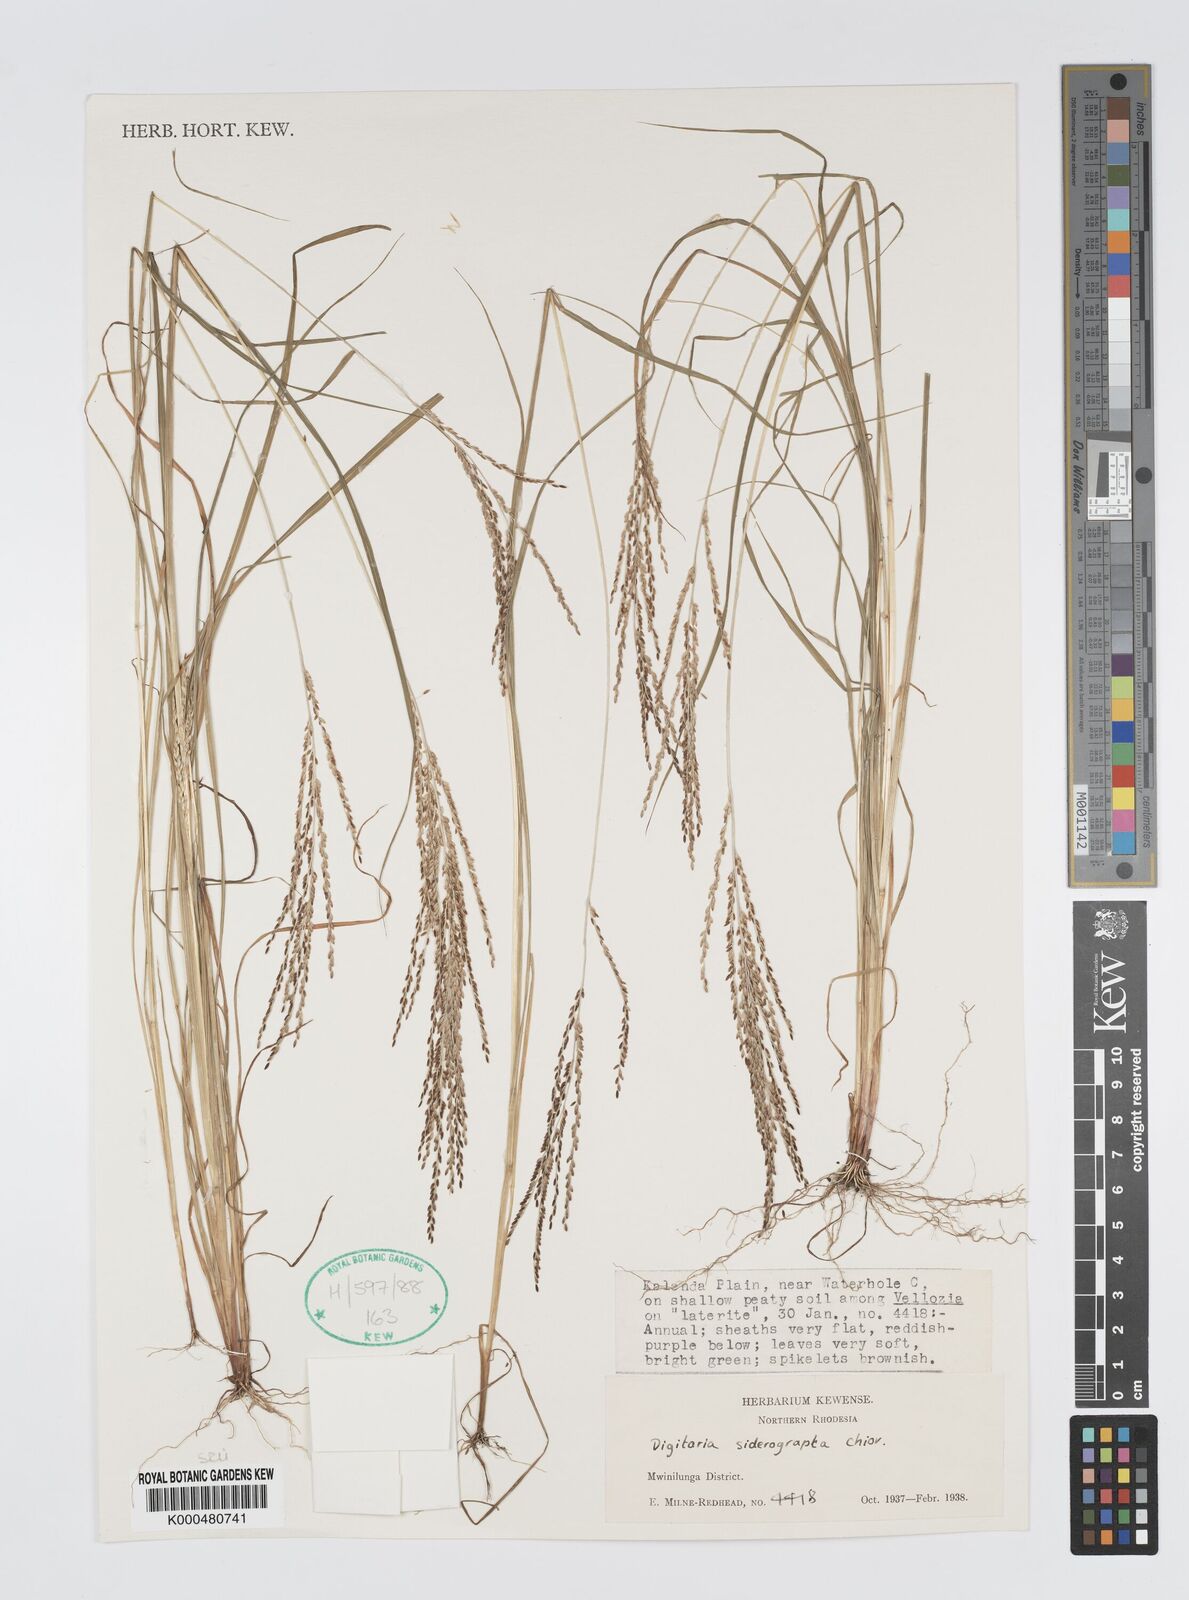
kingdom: Plantae
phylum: Tracheophyta
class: Liliopsida
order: Poales
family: Poaceae
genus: Digitaria
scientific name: Digitaria siderograpta
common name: Crab grass
